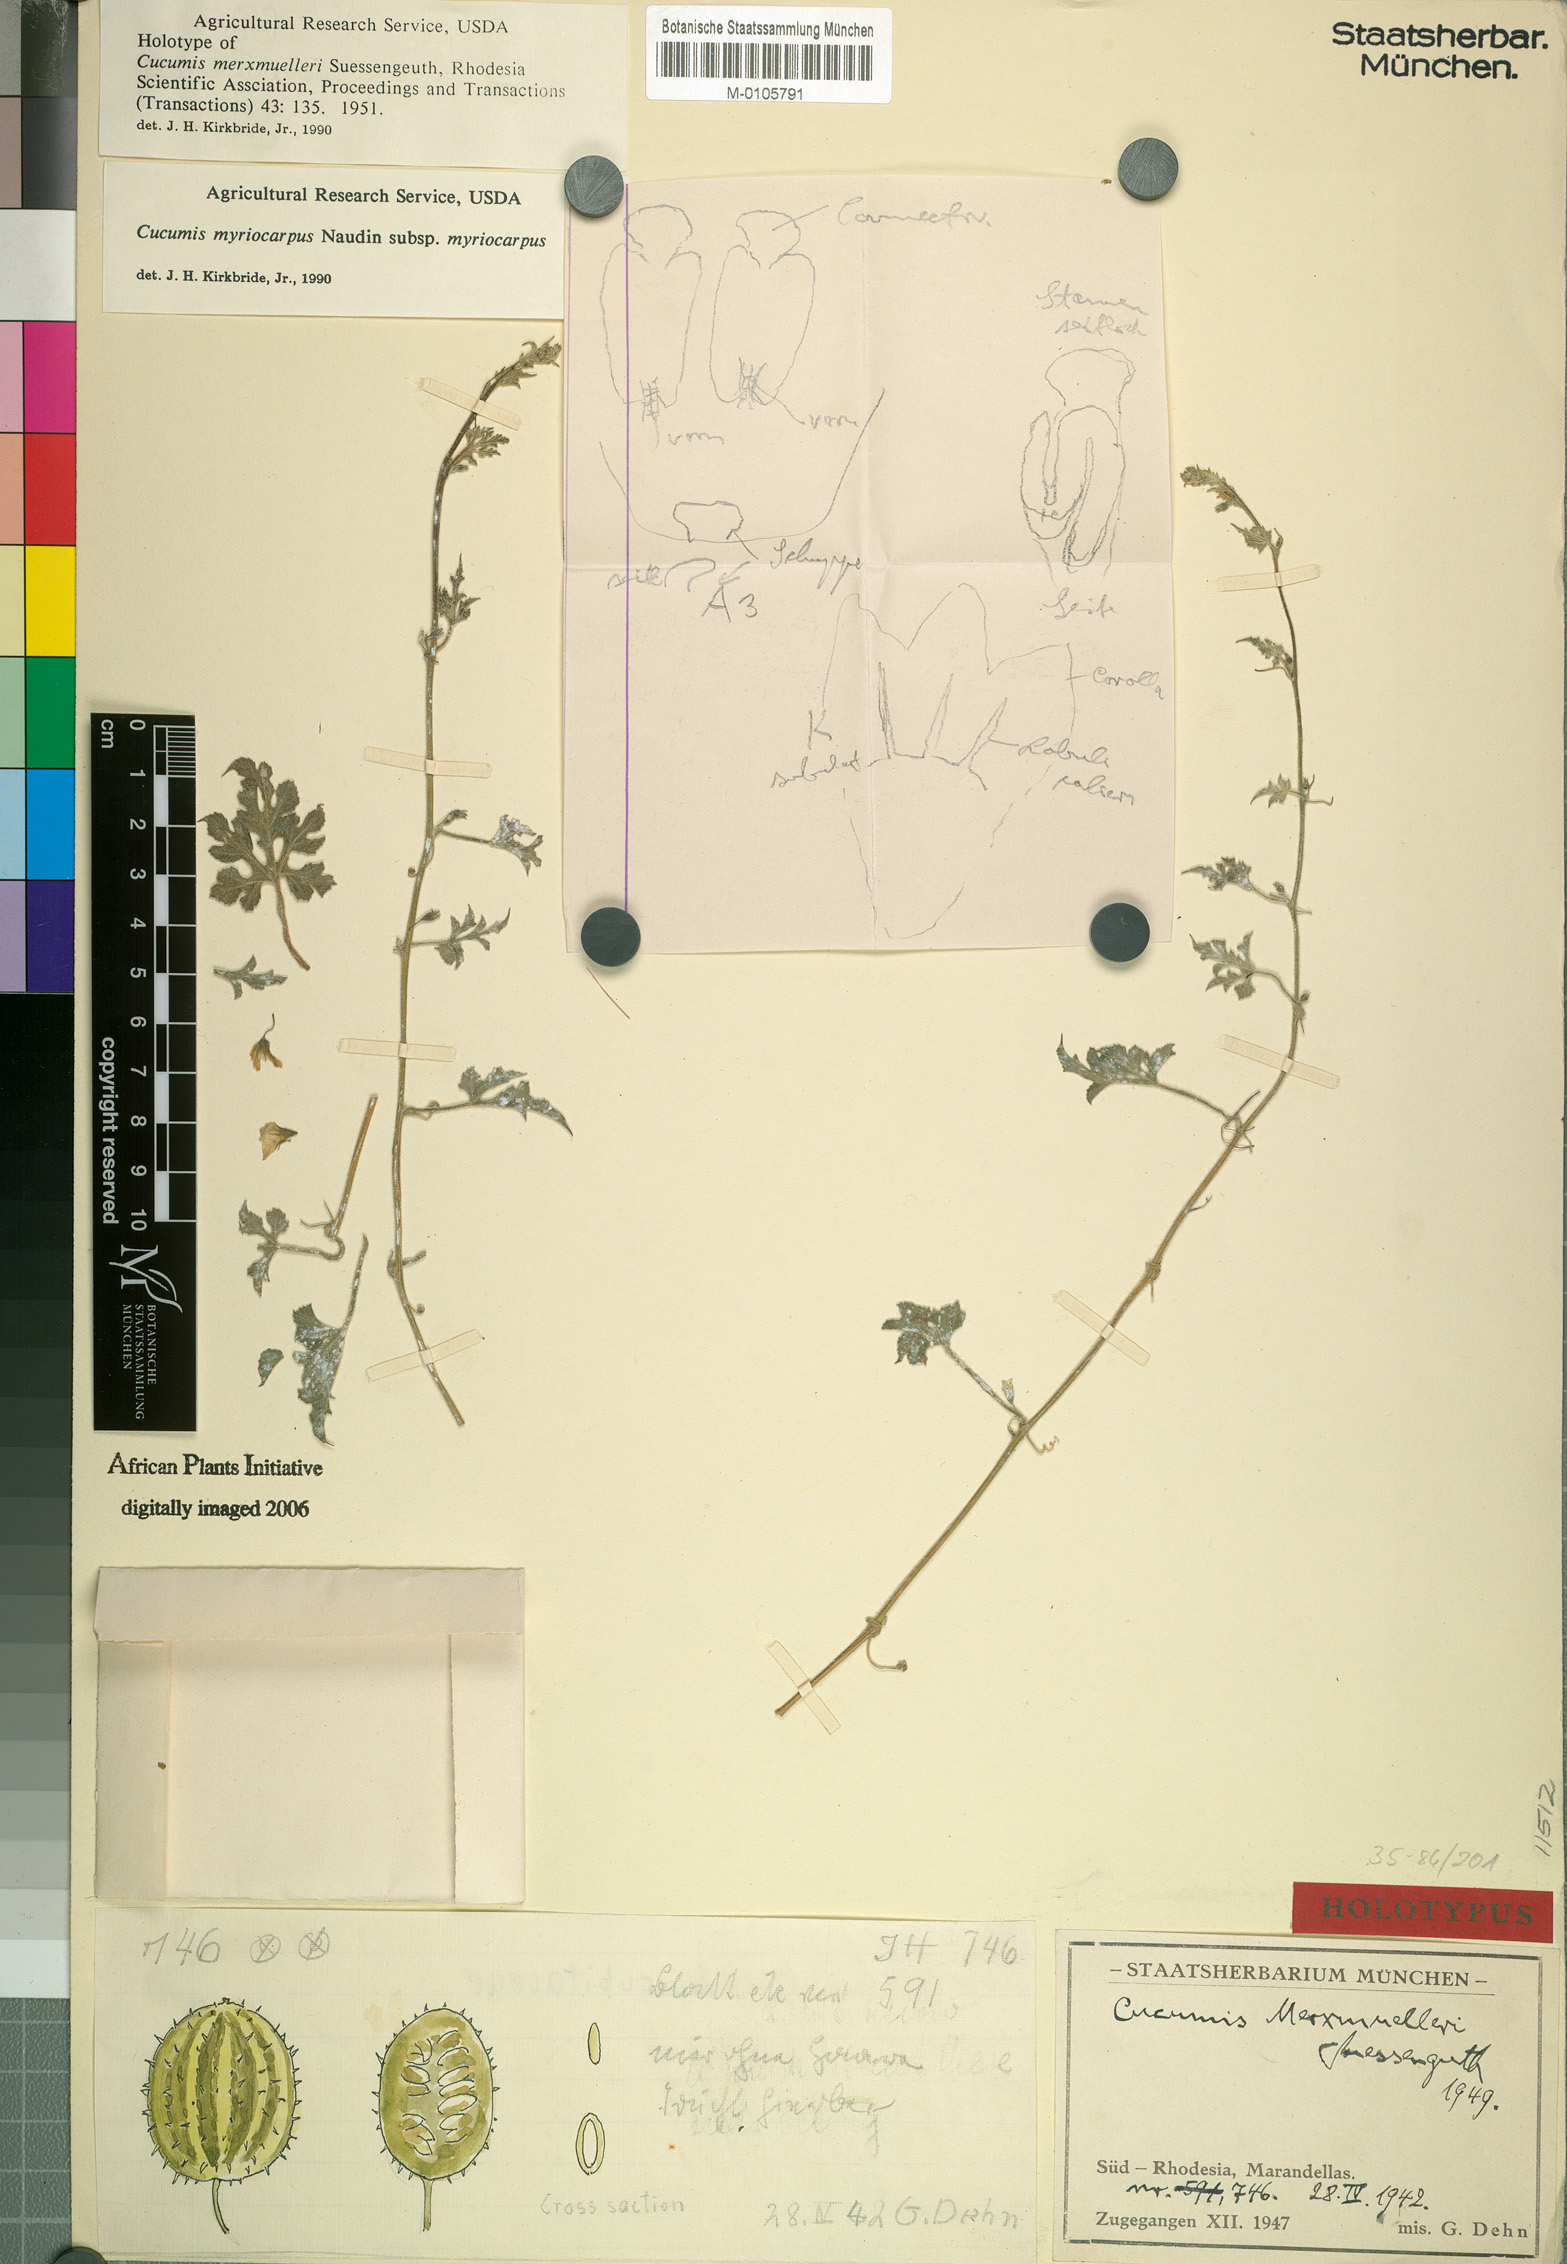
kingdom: Plantae
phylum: Tracheophyta
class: Magnoliopsida
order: Cucurbitales
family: Cucurbitaceae
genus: Cucumis
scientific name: Cucumis myriocarpus
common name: Gooseberry cucumber
